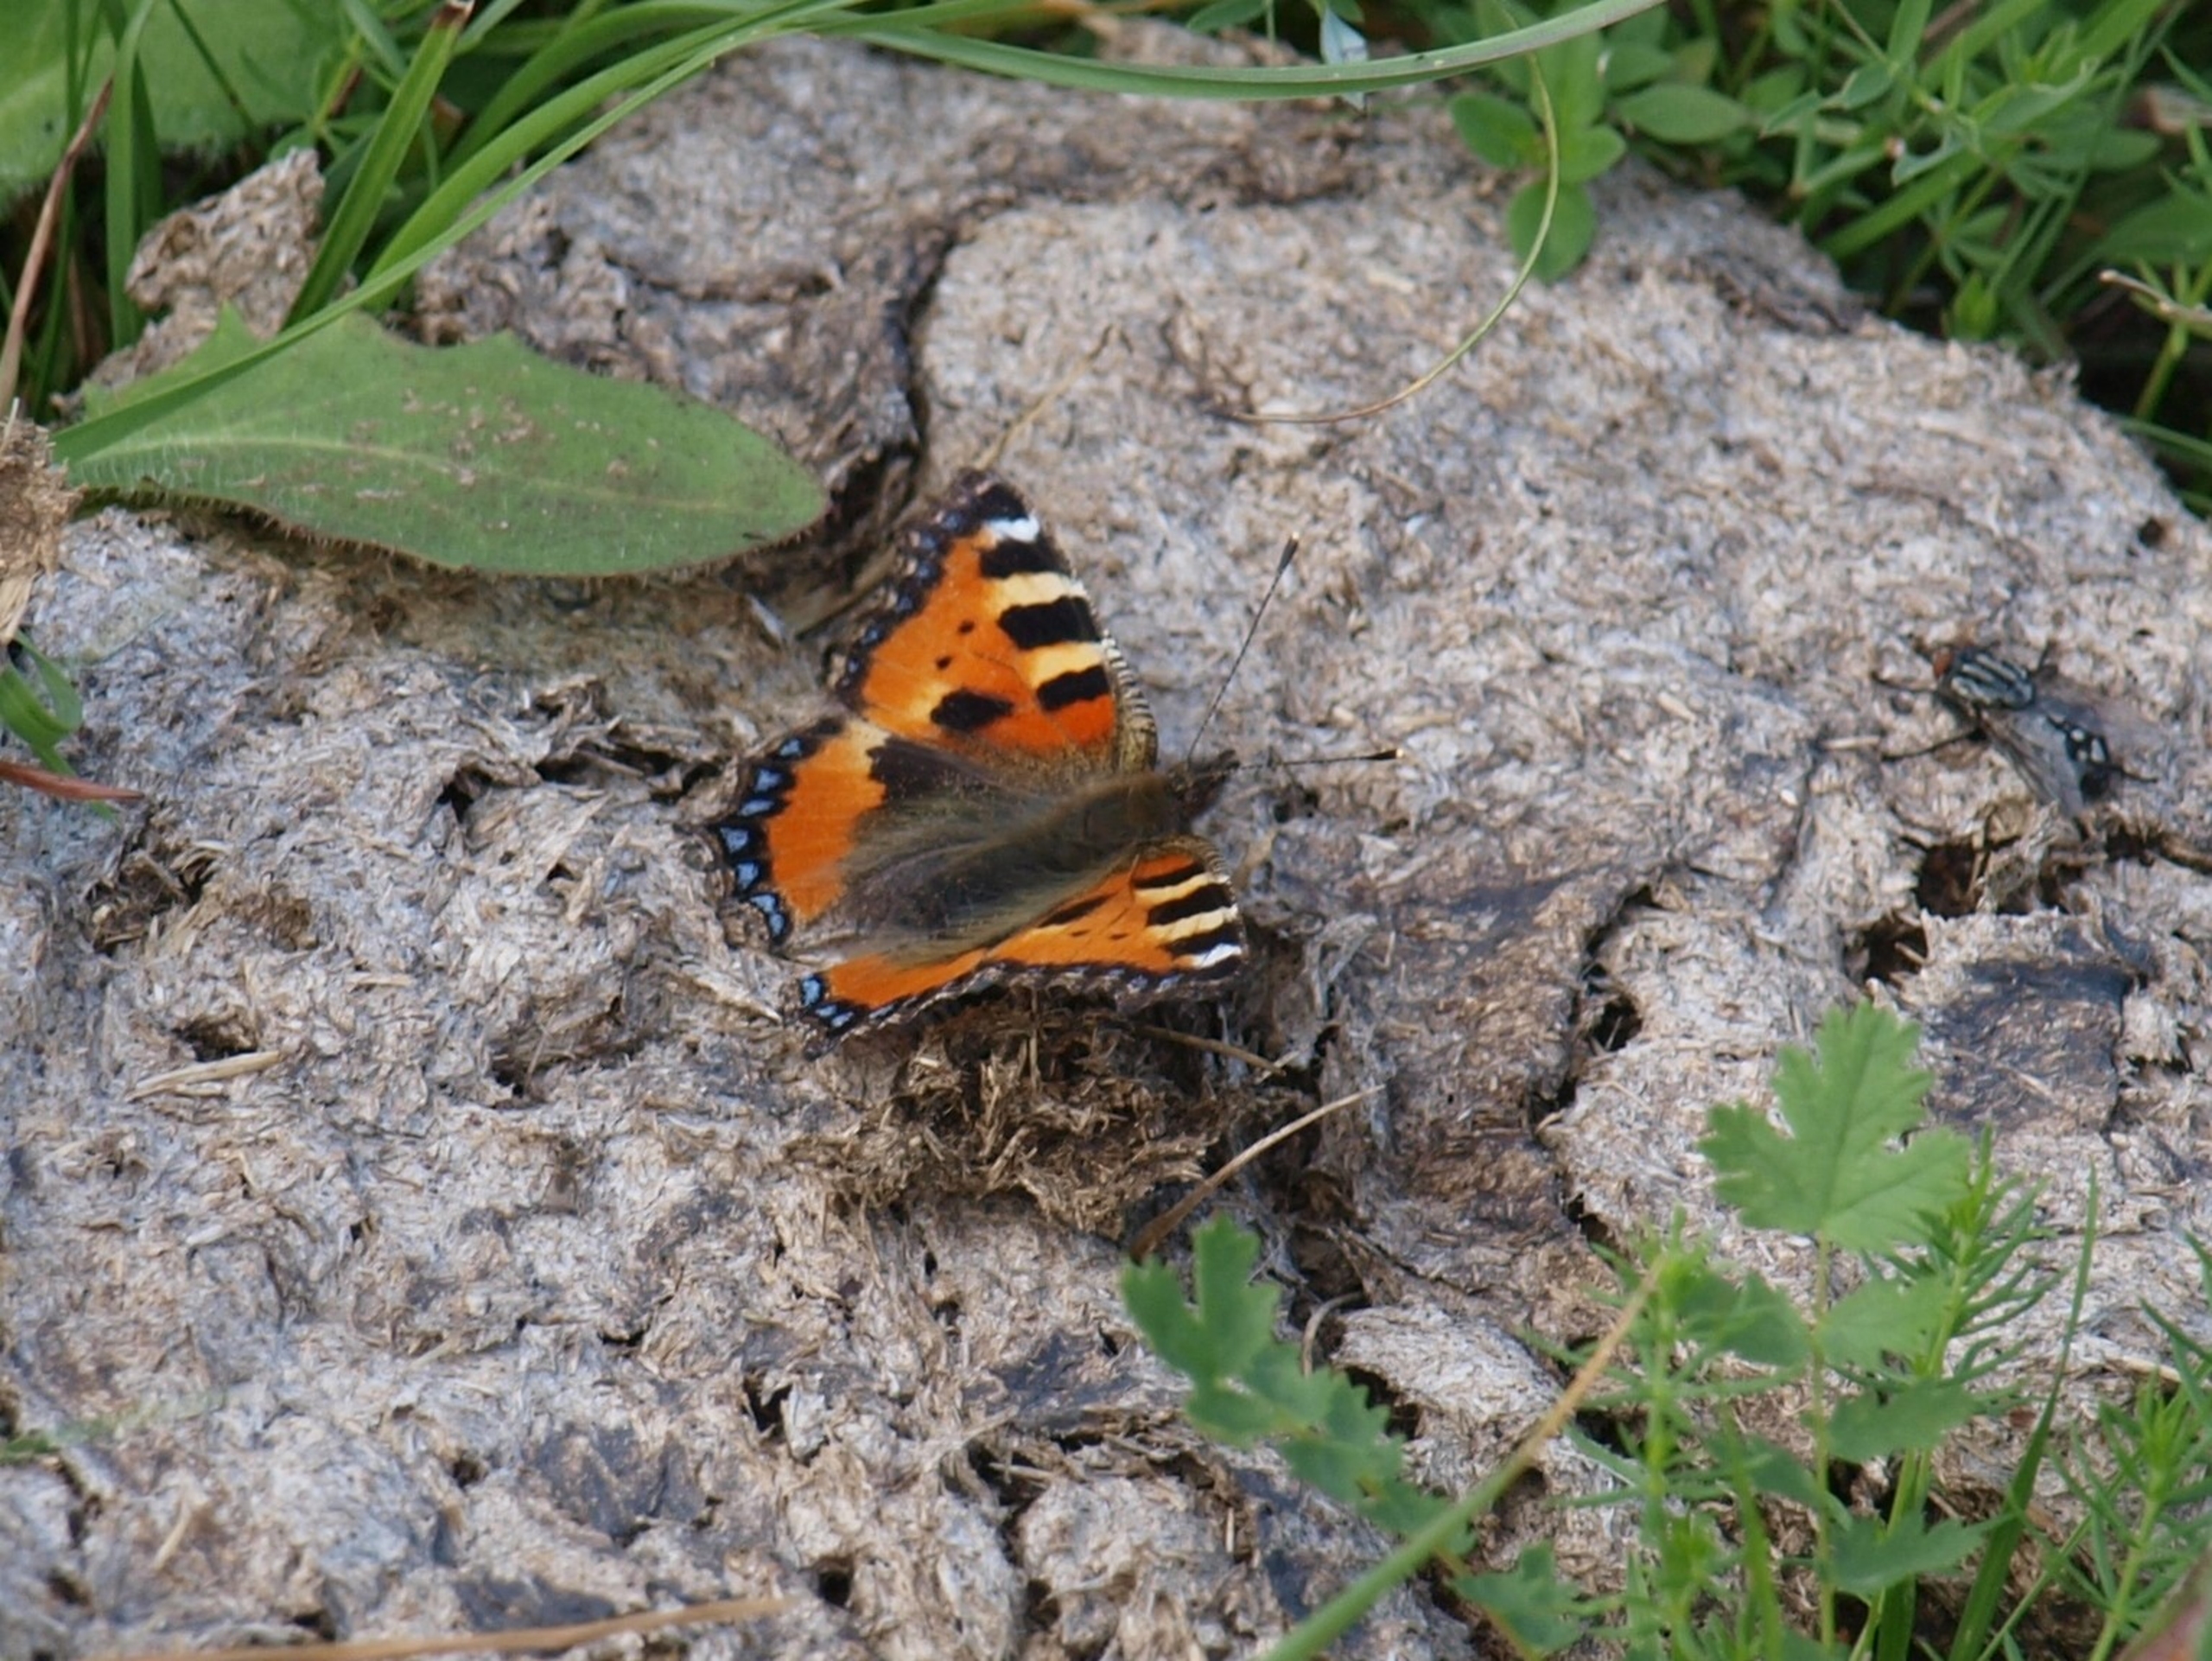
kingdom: Animalia
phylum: Arthropoda
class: Insecta
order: Lepidoptera
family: Nymphalidae
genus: Aglais
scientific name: Aglais urticae
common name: Nældens takvinge
